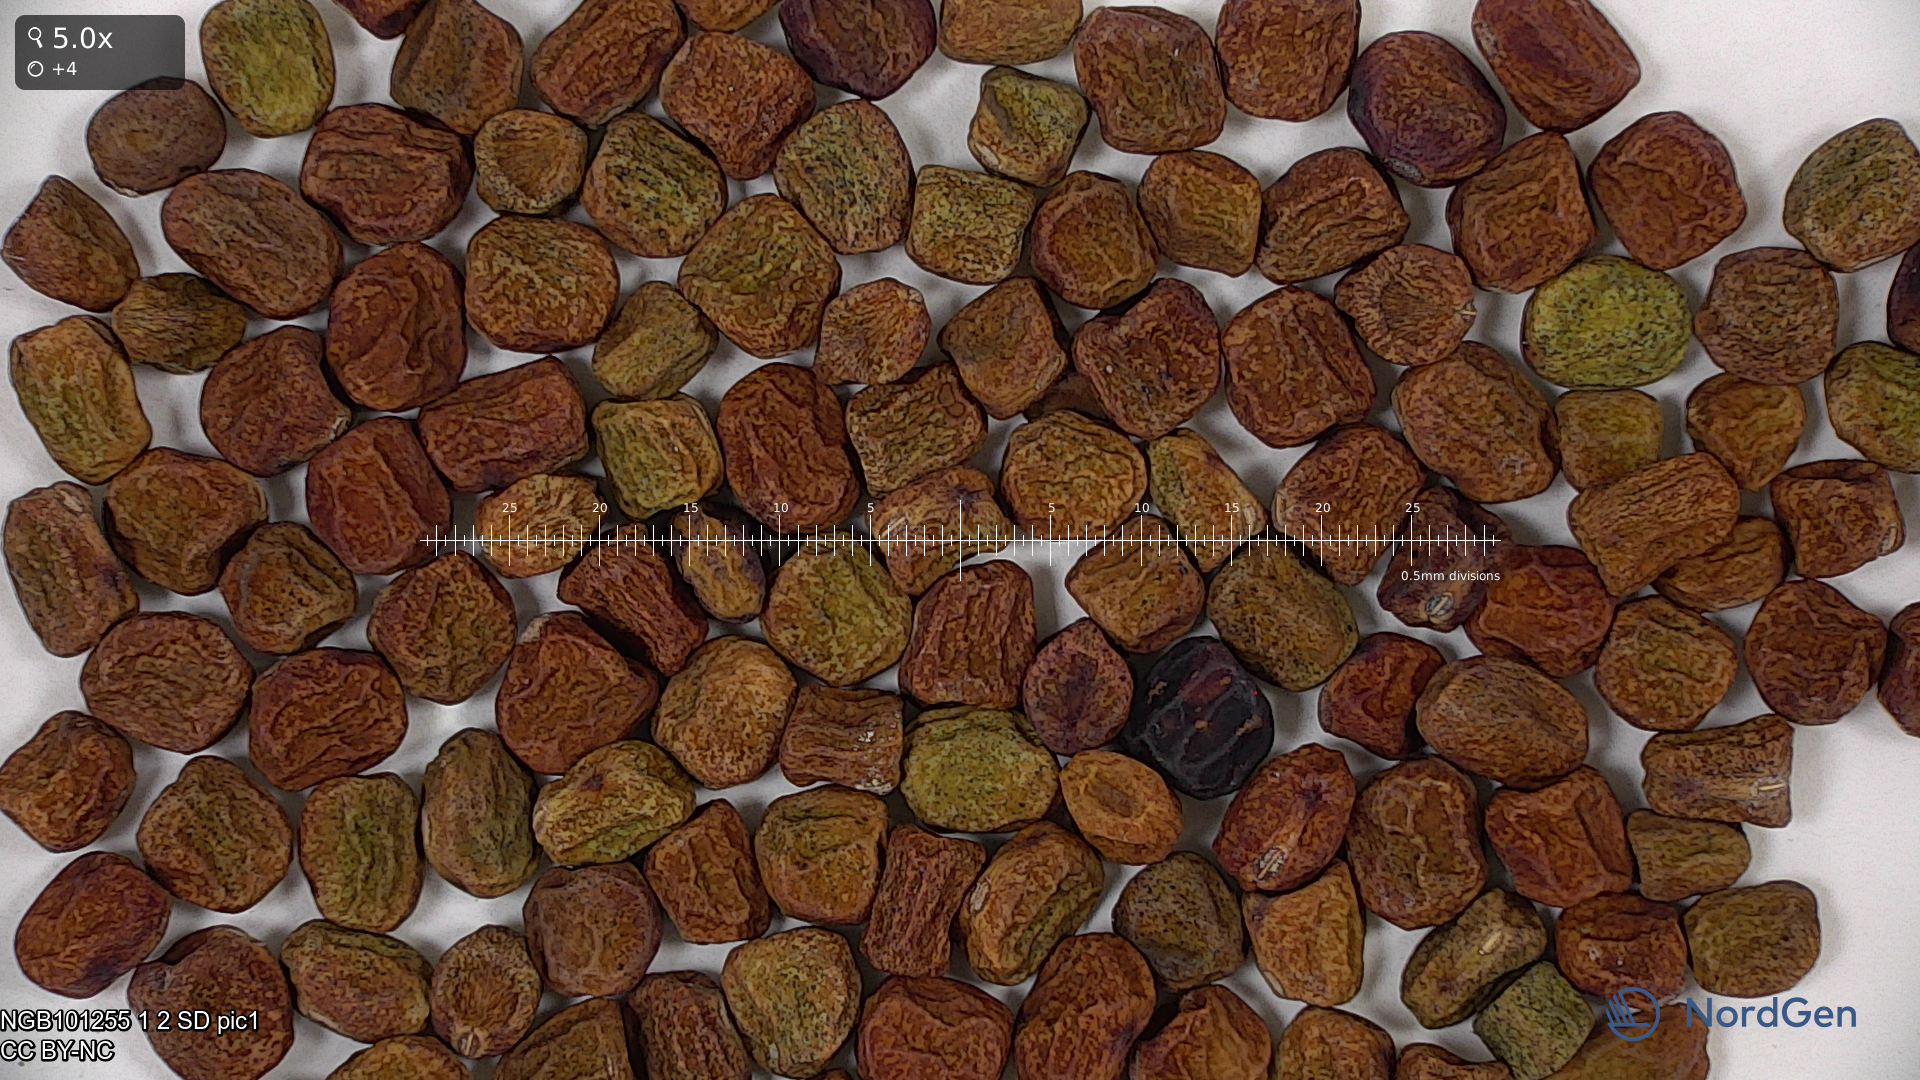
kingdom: Plantae
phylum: Tracheophyta
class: Magnoliopsida
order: Fabales
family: Fabaceae
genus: Lathyrus
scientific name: Lathyrus oleraceus
